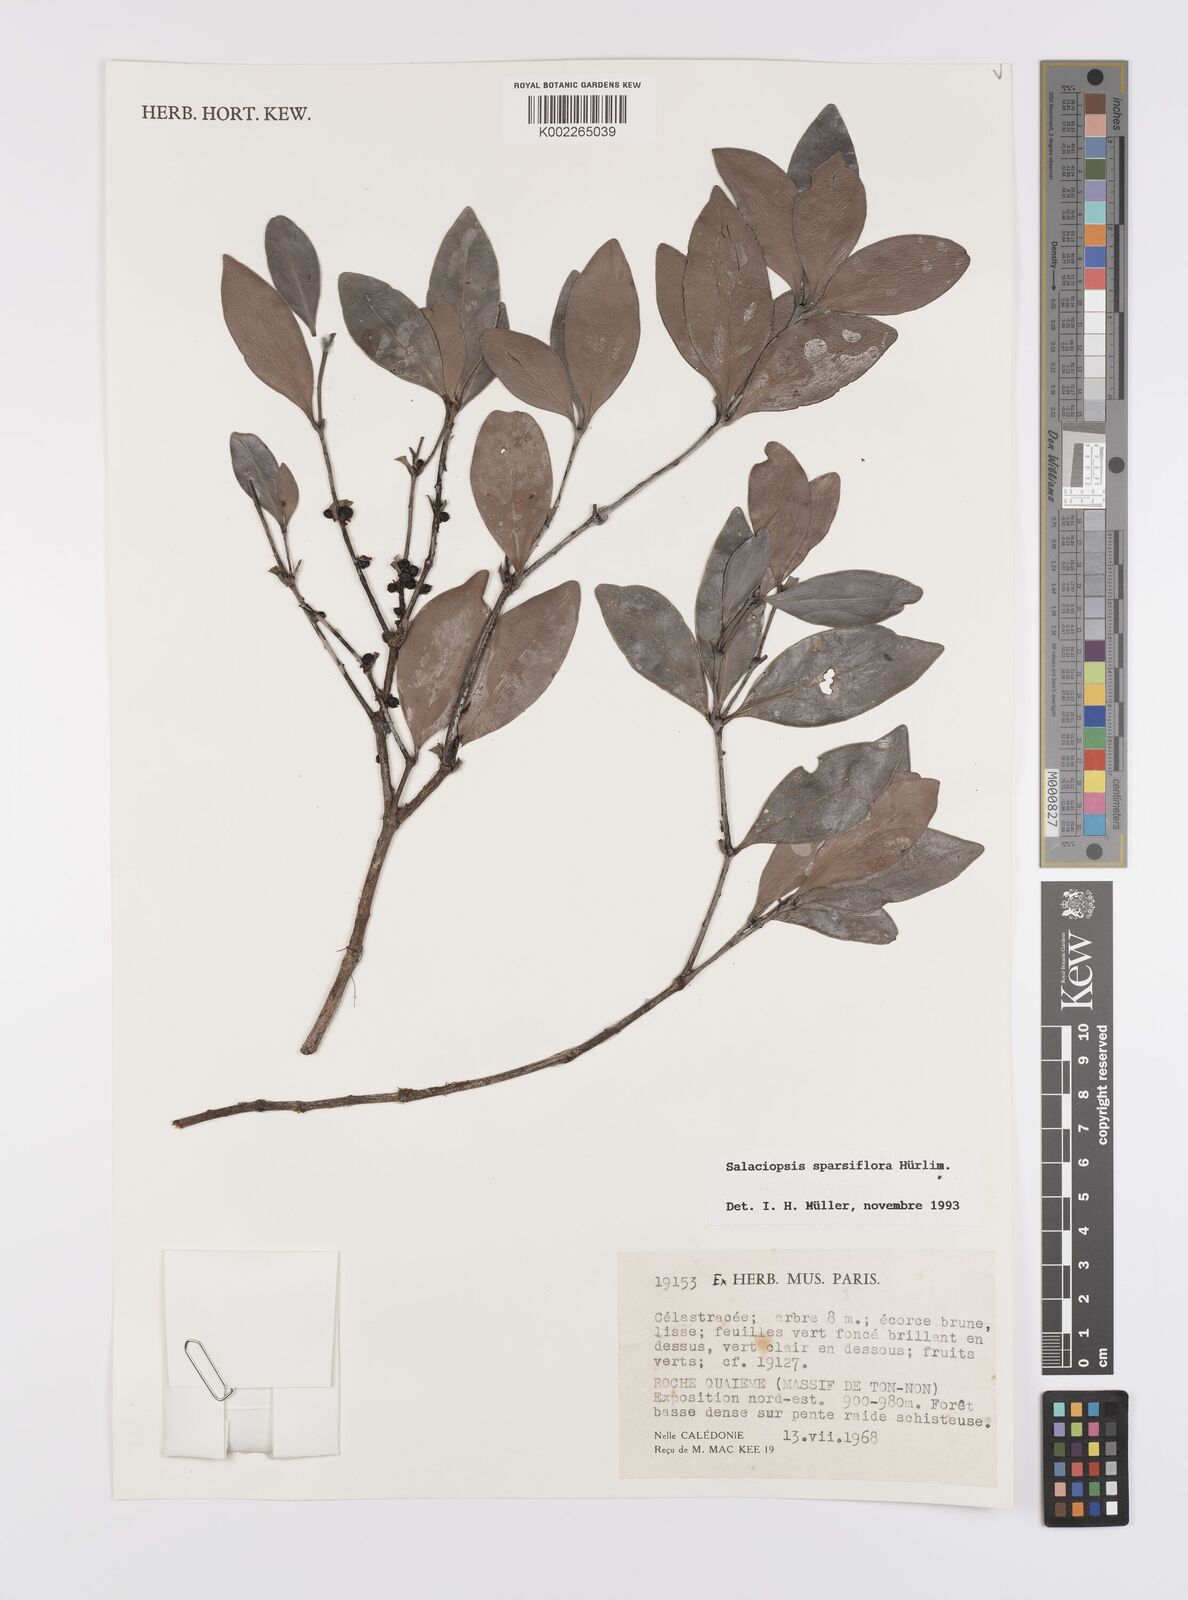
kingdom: Plantae
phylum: Tracheophyta
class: Magnoliopsida
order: Celastrales
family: Celastraceae
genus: Salaciopsis
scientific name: Salaciopsis sparsiflora
